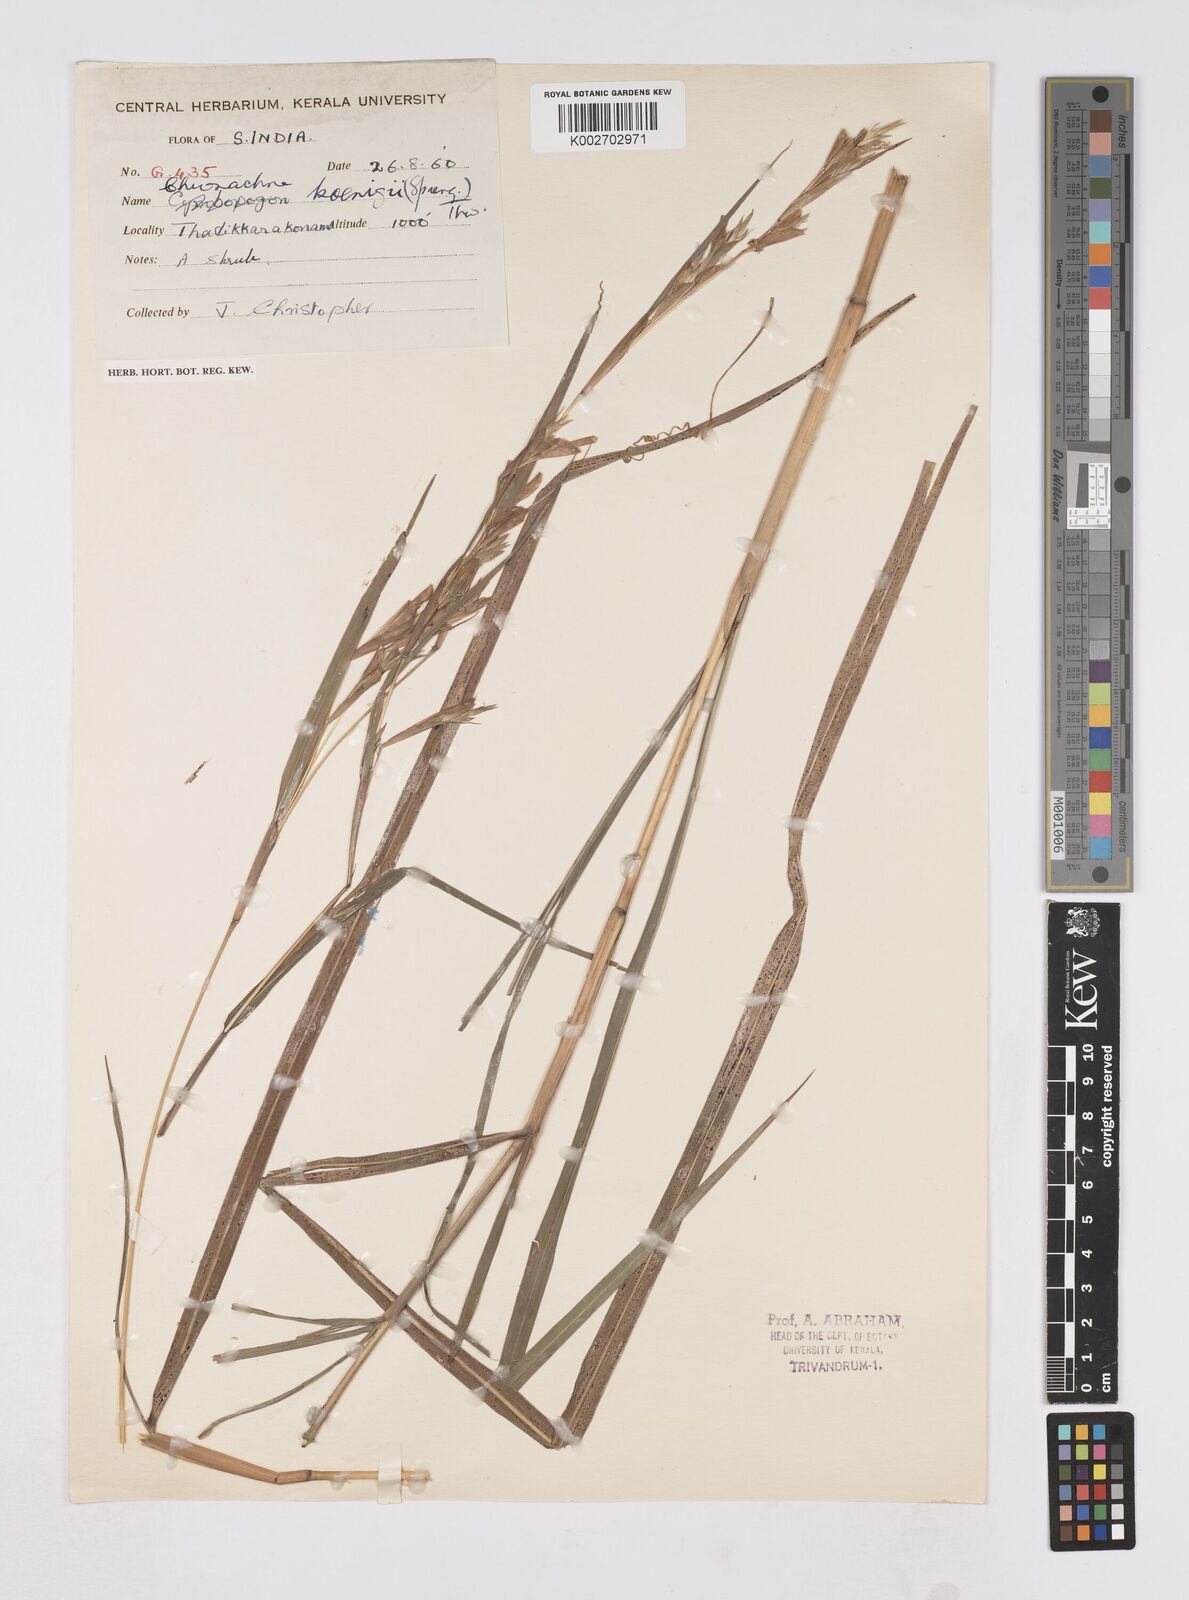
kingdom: Plantae
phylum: Tracheophyta
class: Liliopsida
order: Poales
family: Poaceae
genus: Polytoca
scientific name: Polytoca gigantea
